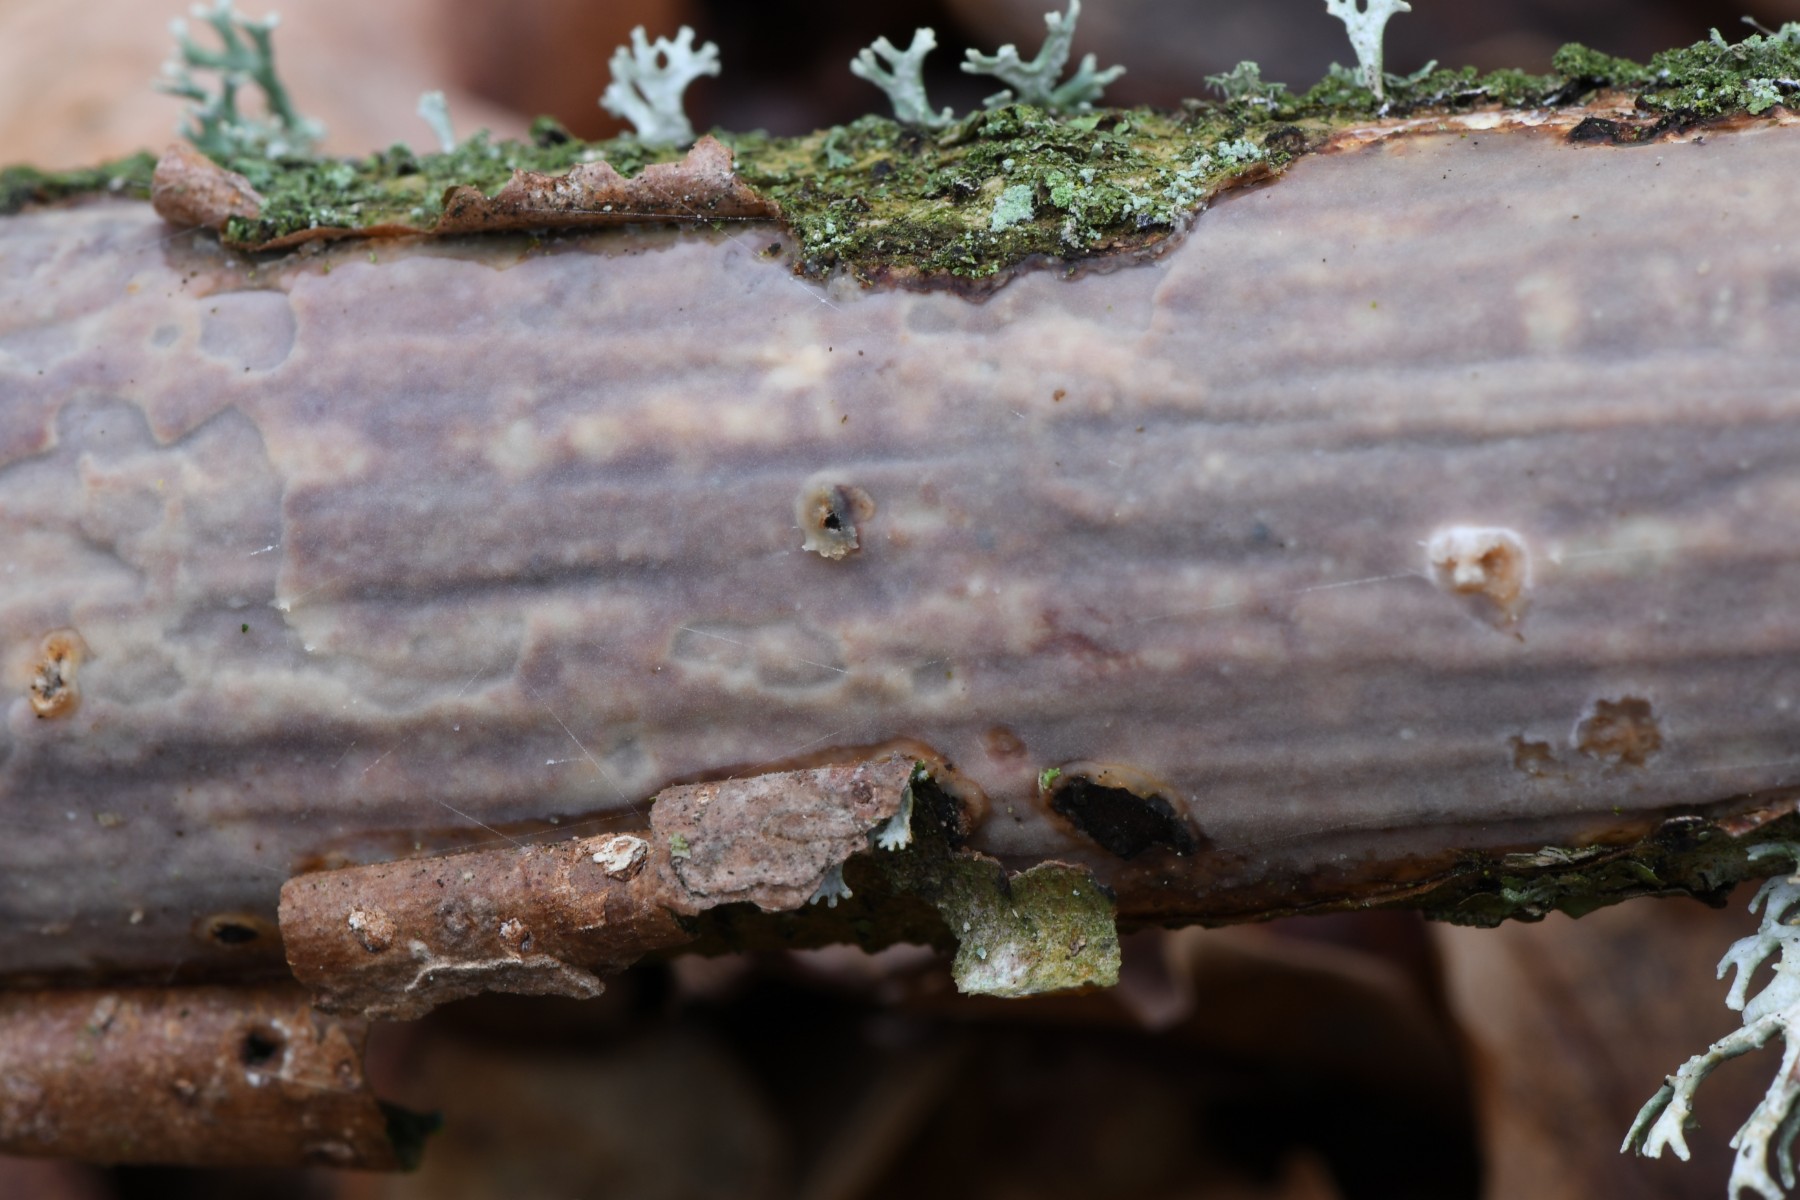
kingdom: Fungi
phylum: Basidiomycota
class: Agaricomycetes
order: Corticiales
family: Vuilleminiaceae
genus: Vuilleminia
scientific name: Vuilleminia comedens
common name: almindelig barksprænger
